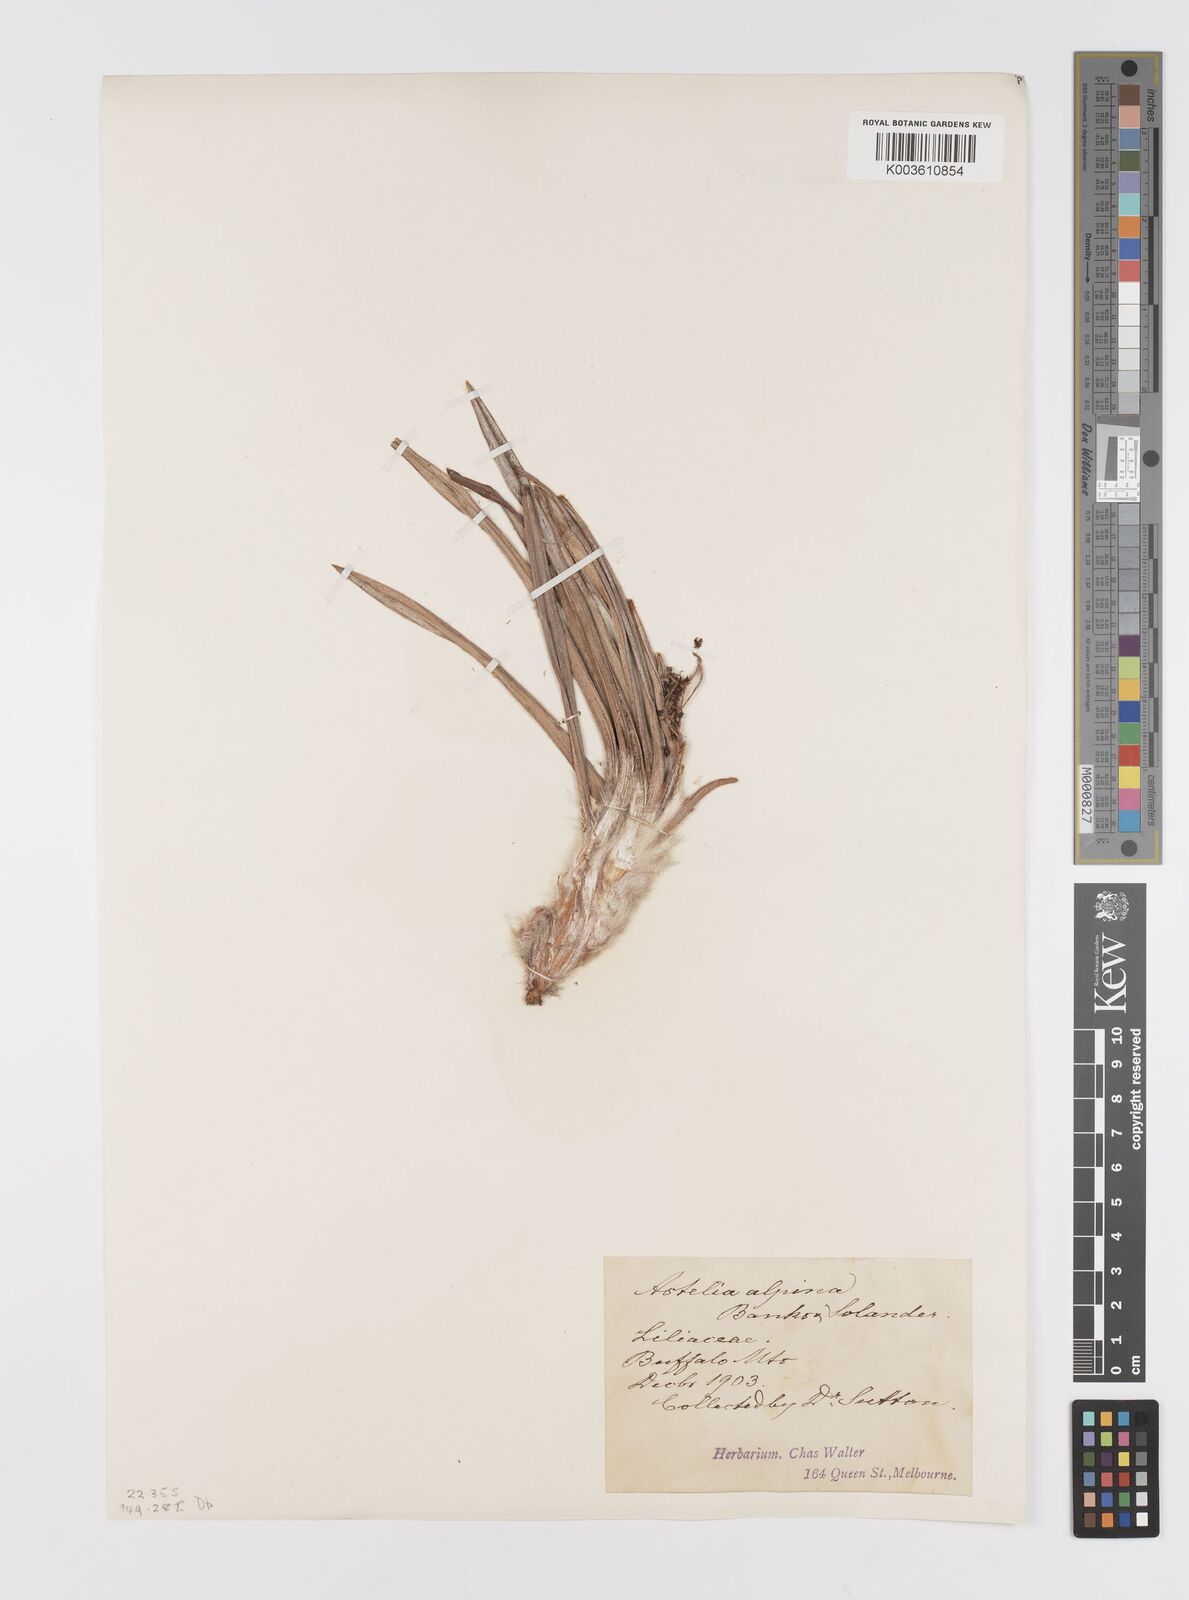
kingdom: Plantae
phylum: Tracheophyta
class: Liliopsida
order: Asparagales
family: Asteliaceae
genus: Astelia
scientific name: Astelia alpina
